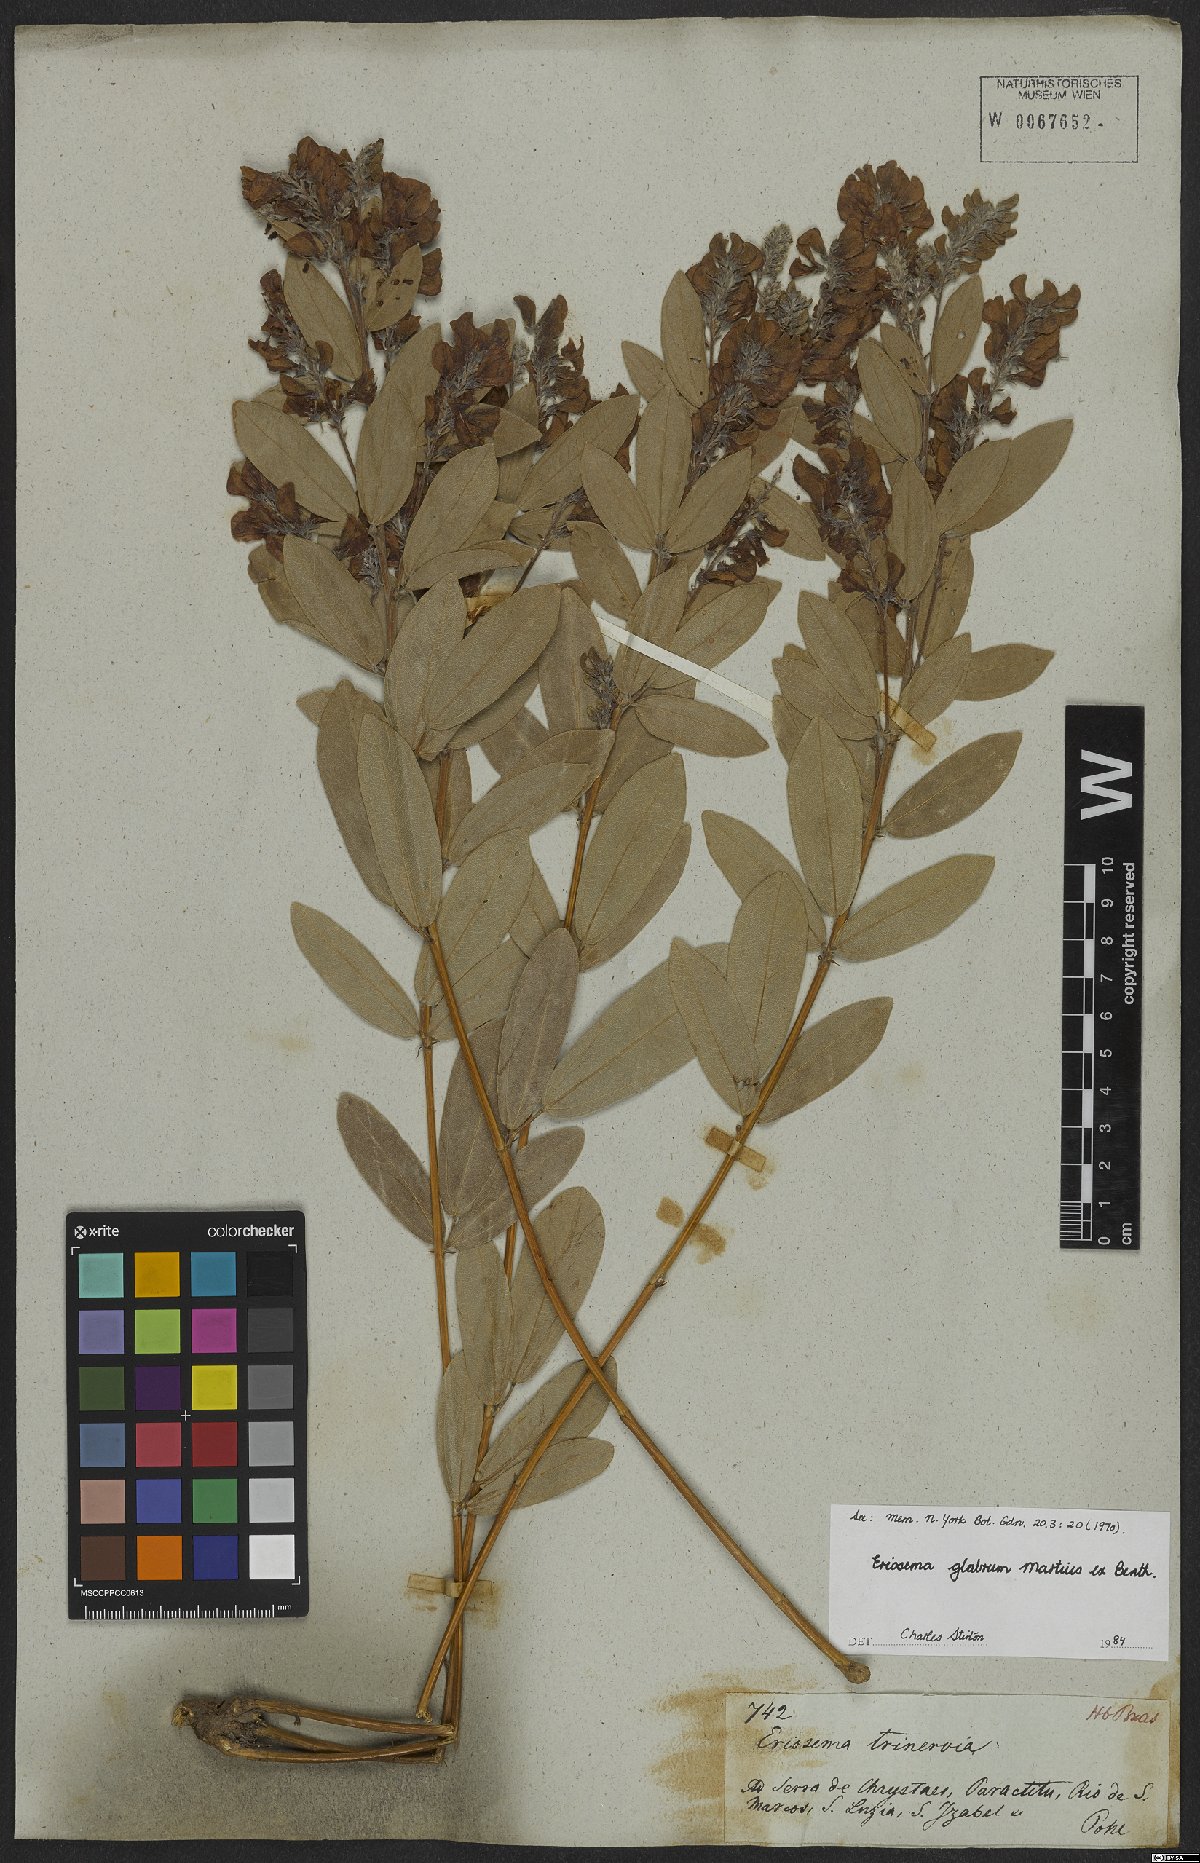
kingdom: Plantae
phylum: Tracheophyta
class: Magnoliopsida
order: Fabales
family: Fabaceae
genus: Eriosema
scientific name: Eriosema glabrum
